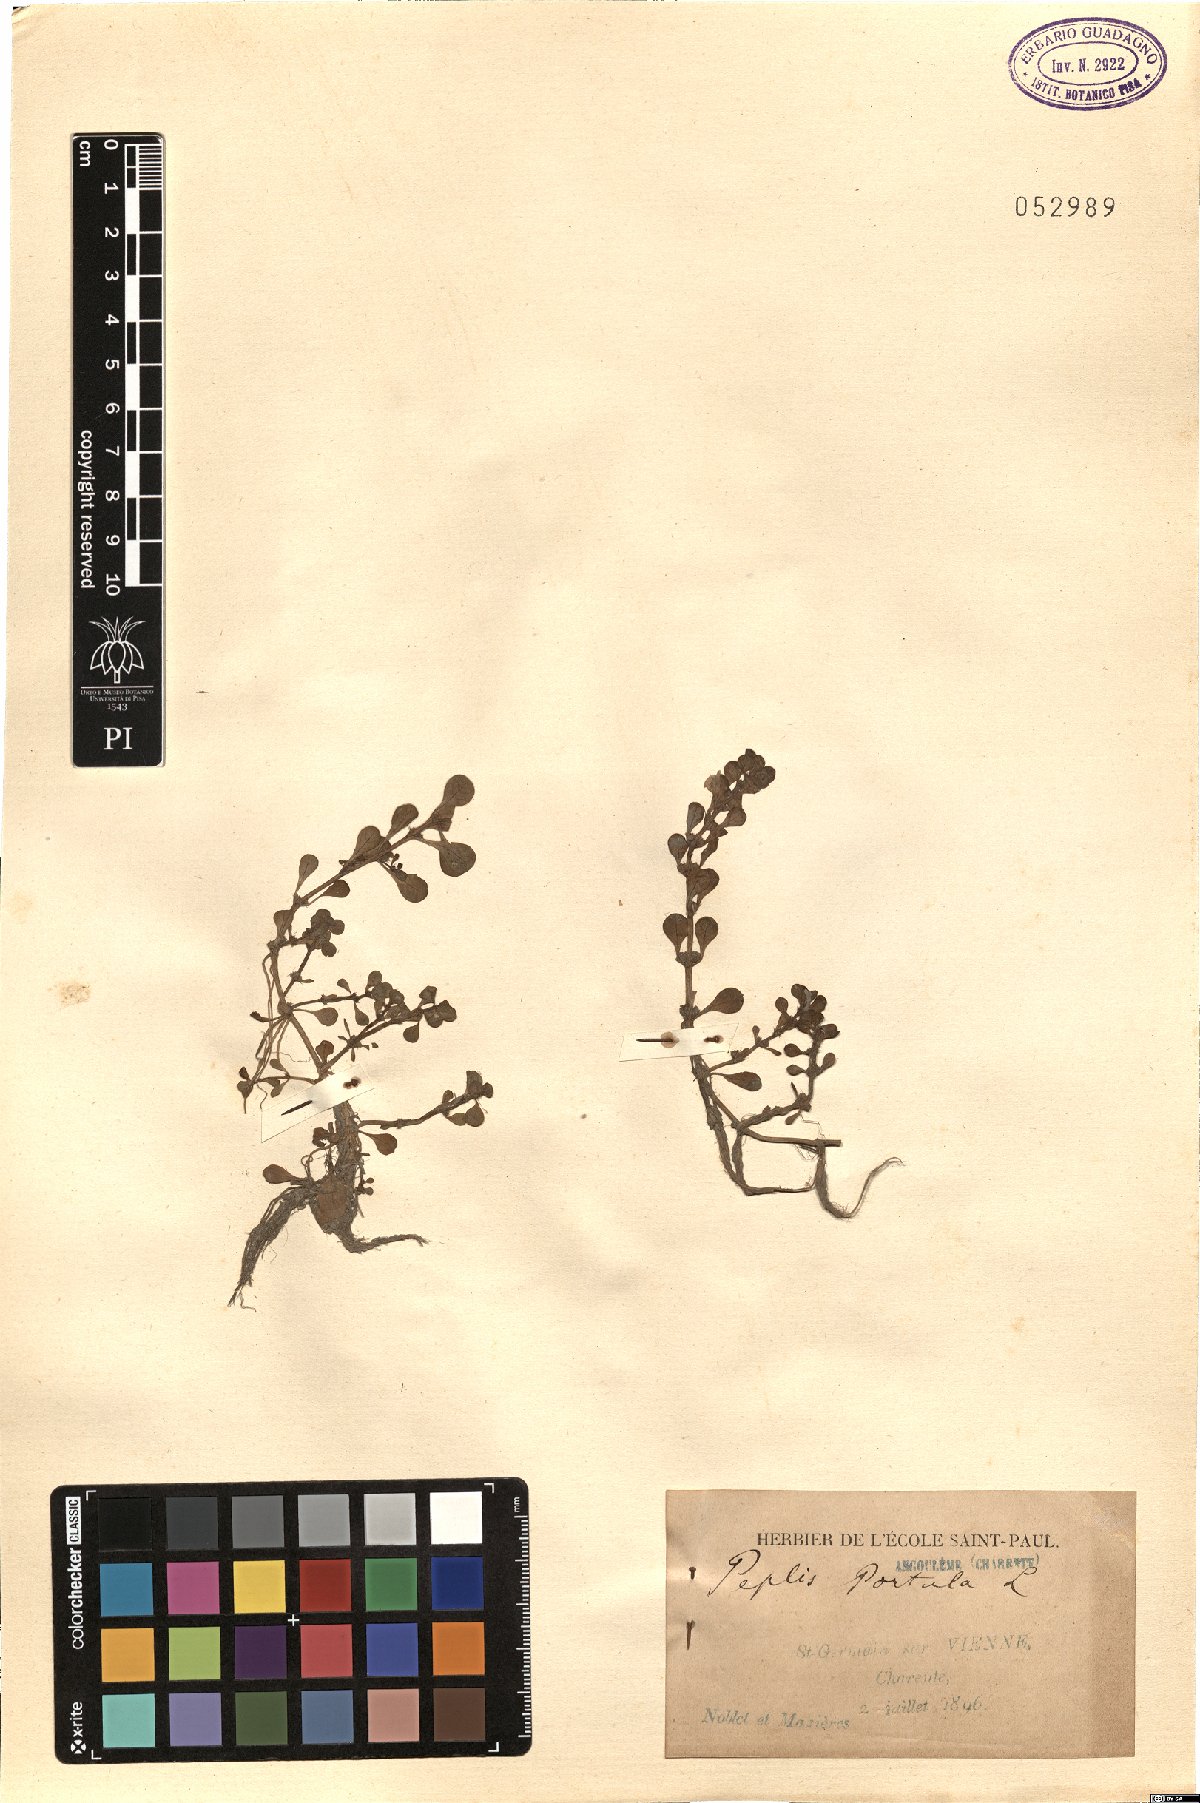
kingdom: Plantae
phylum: Tracheophyta
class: Magnoliopsida
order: Myrtales
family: Lythraceae
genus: Lythrum
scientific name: Lythrum portula
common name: Water purslane
